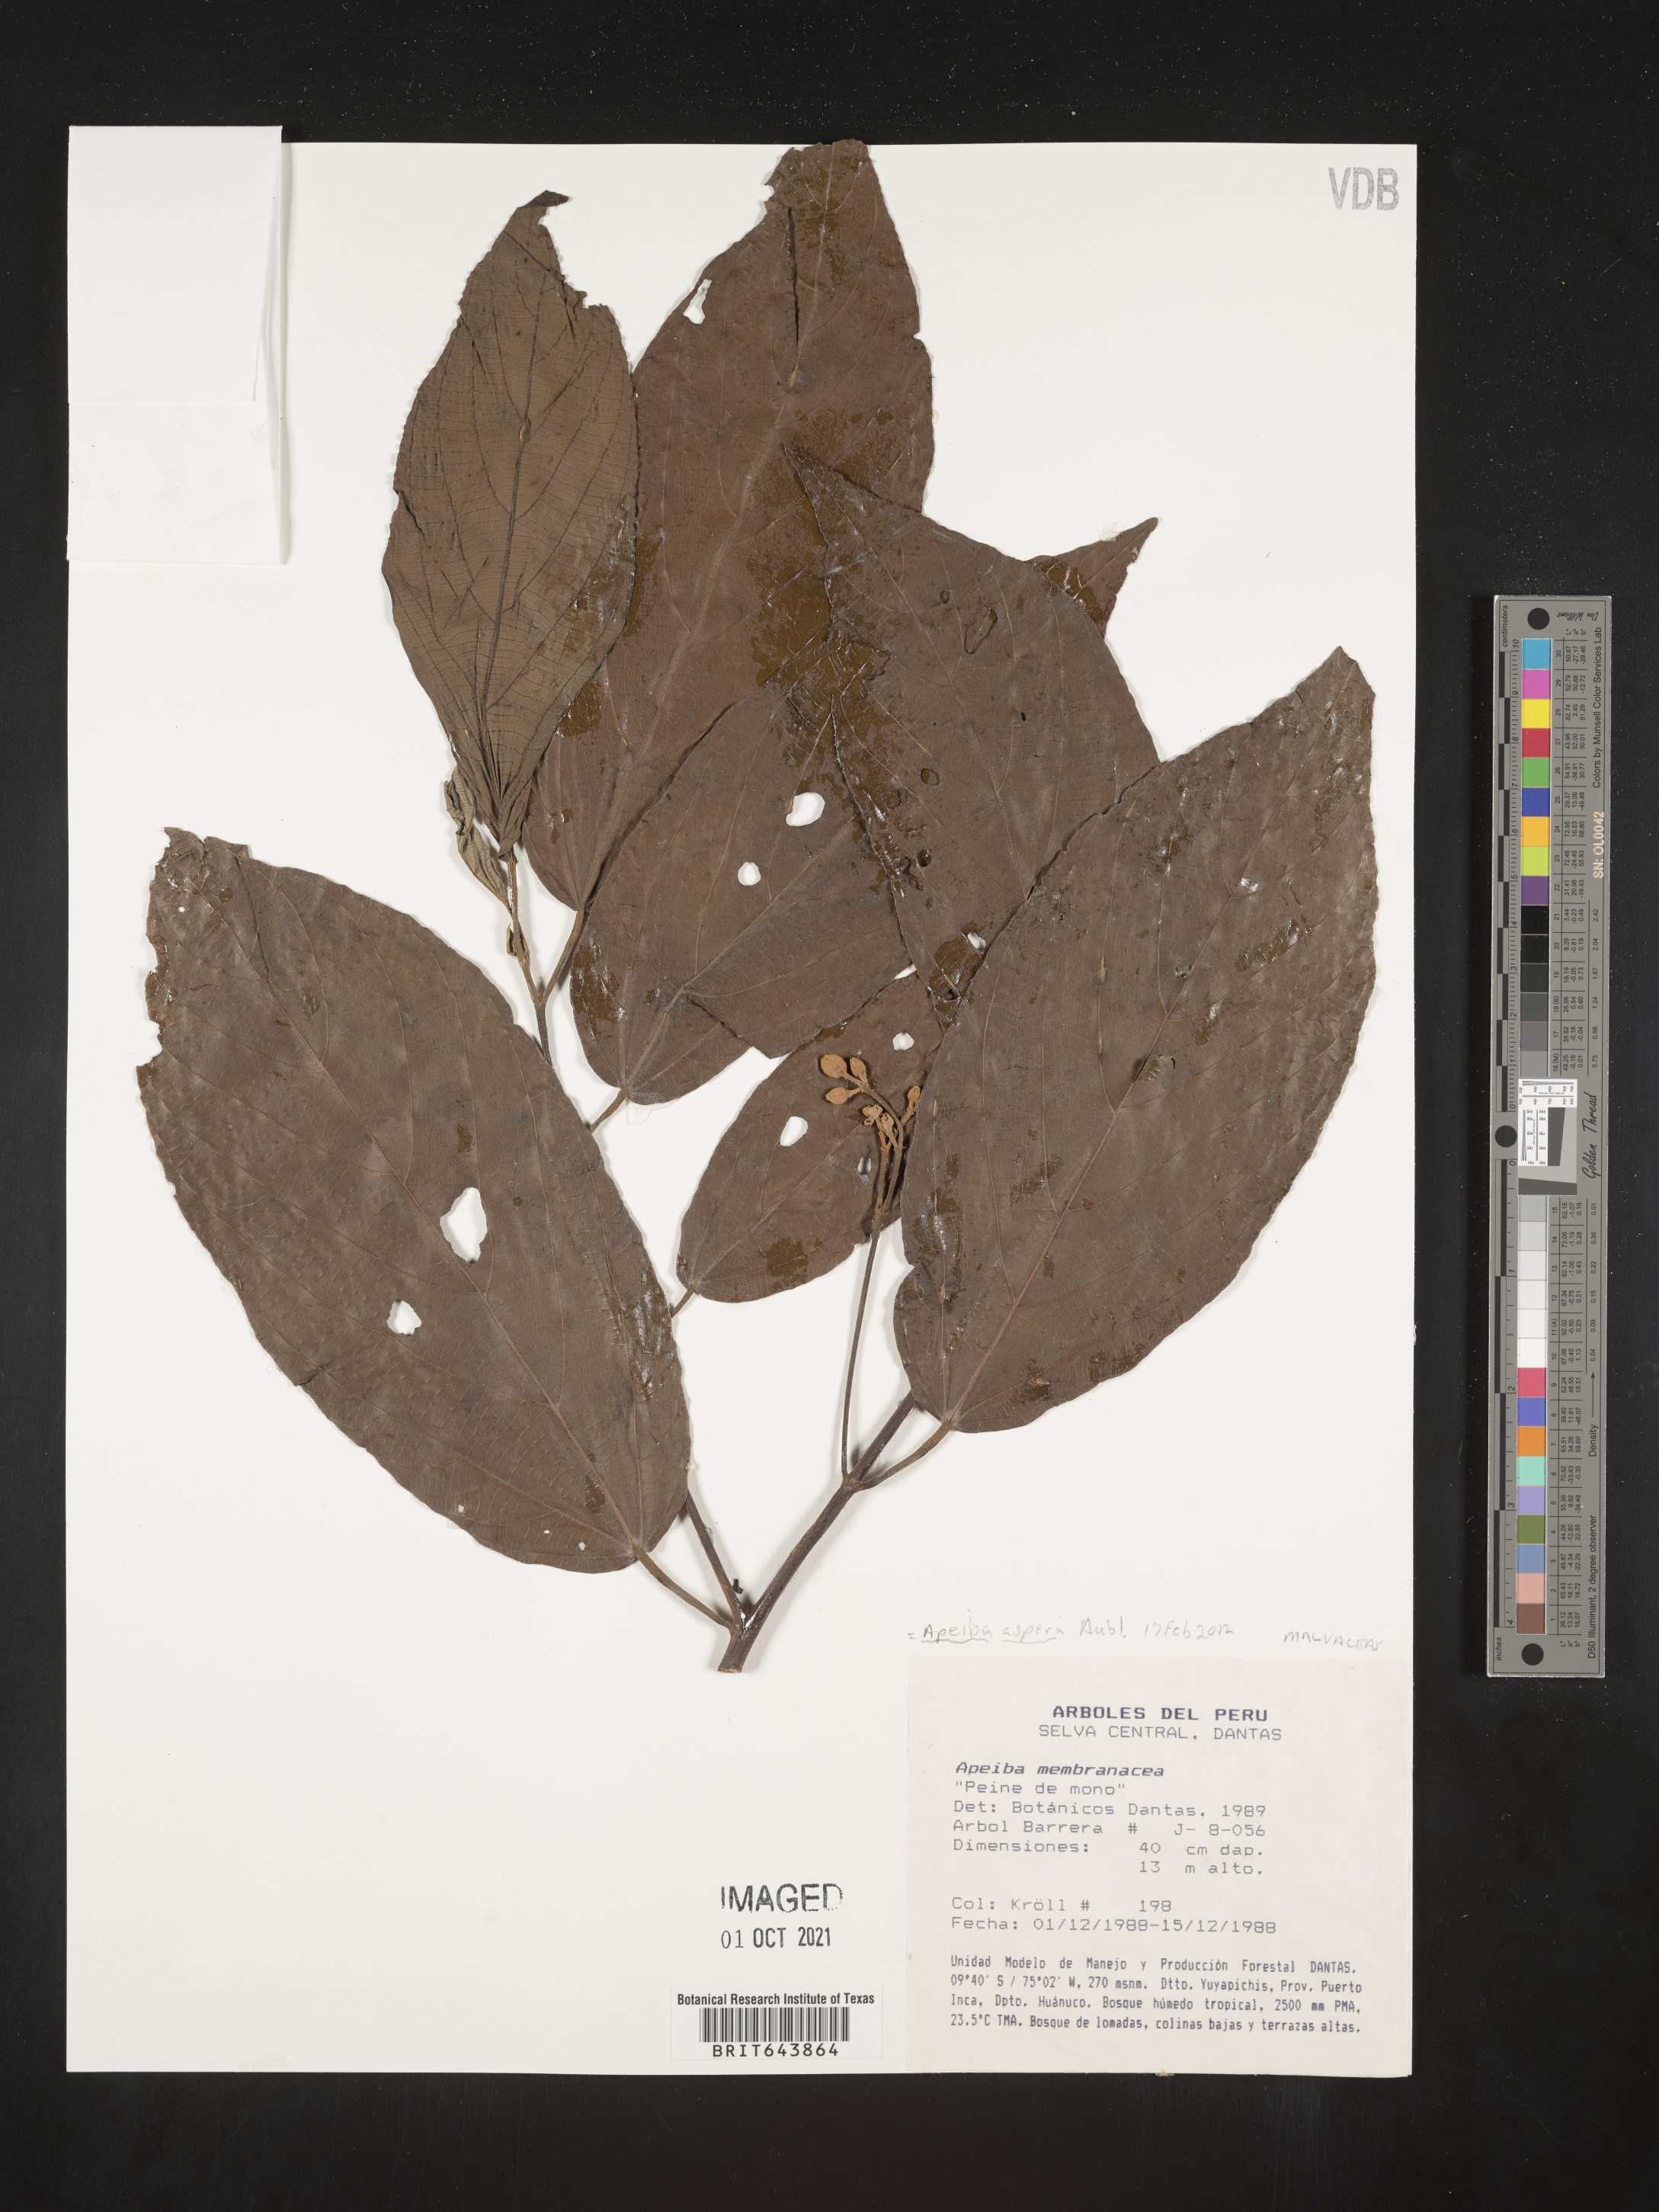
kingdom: Plantae
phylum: Tracheophyta
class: Magnoliopsida
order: Malvales
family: Malvaceae
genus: Apeiba
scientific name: Apeiba
